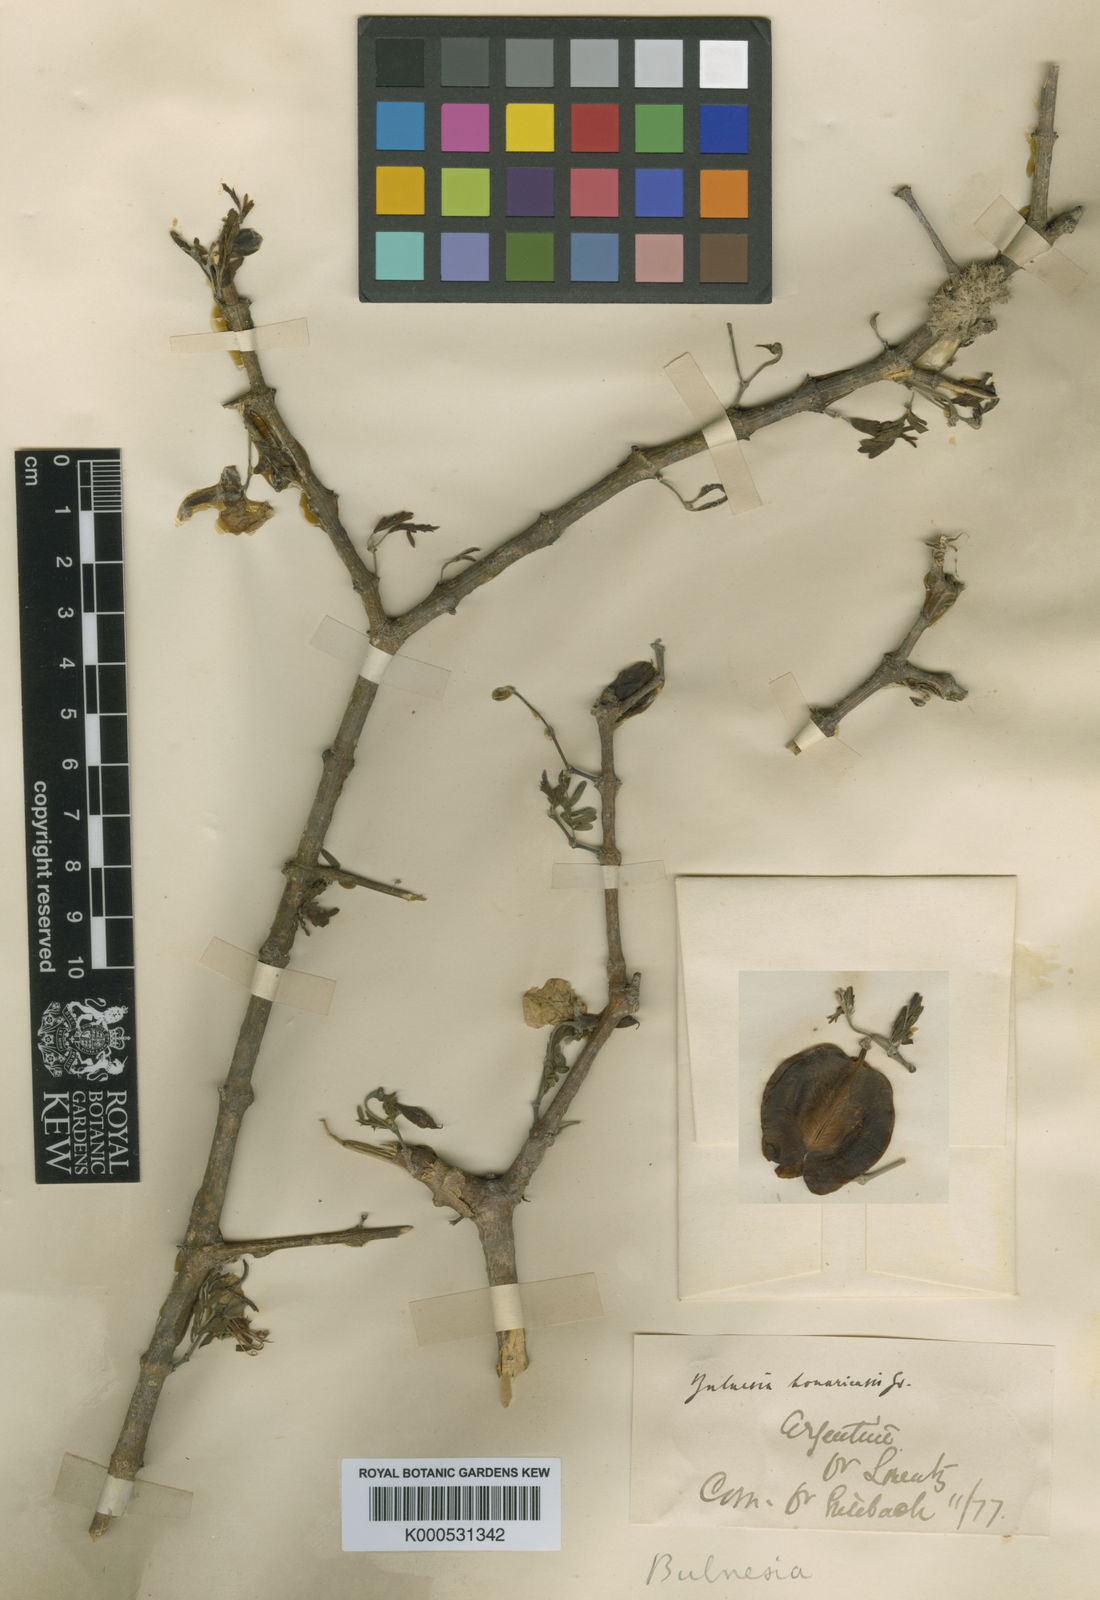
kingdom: Plantae
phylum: Tracheophyta
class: Magnoliopsida
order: Zygophyllales
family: Zygophyllaceae
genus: Gonopterodendron
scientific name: Gonopterodendron bonariense
